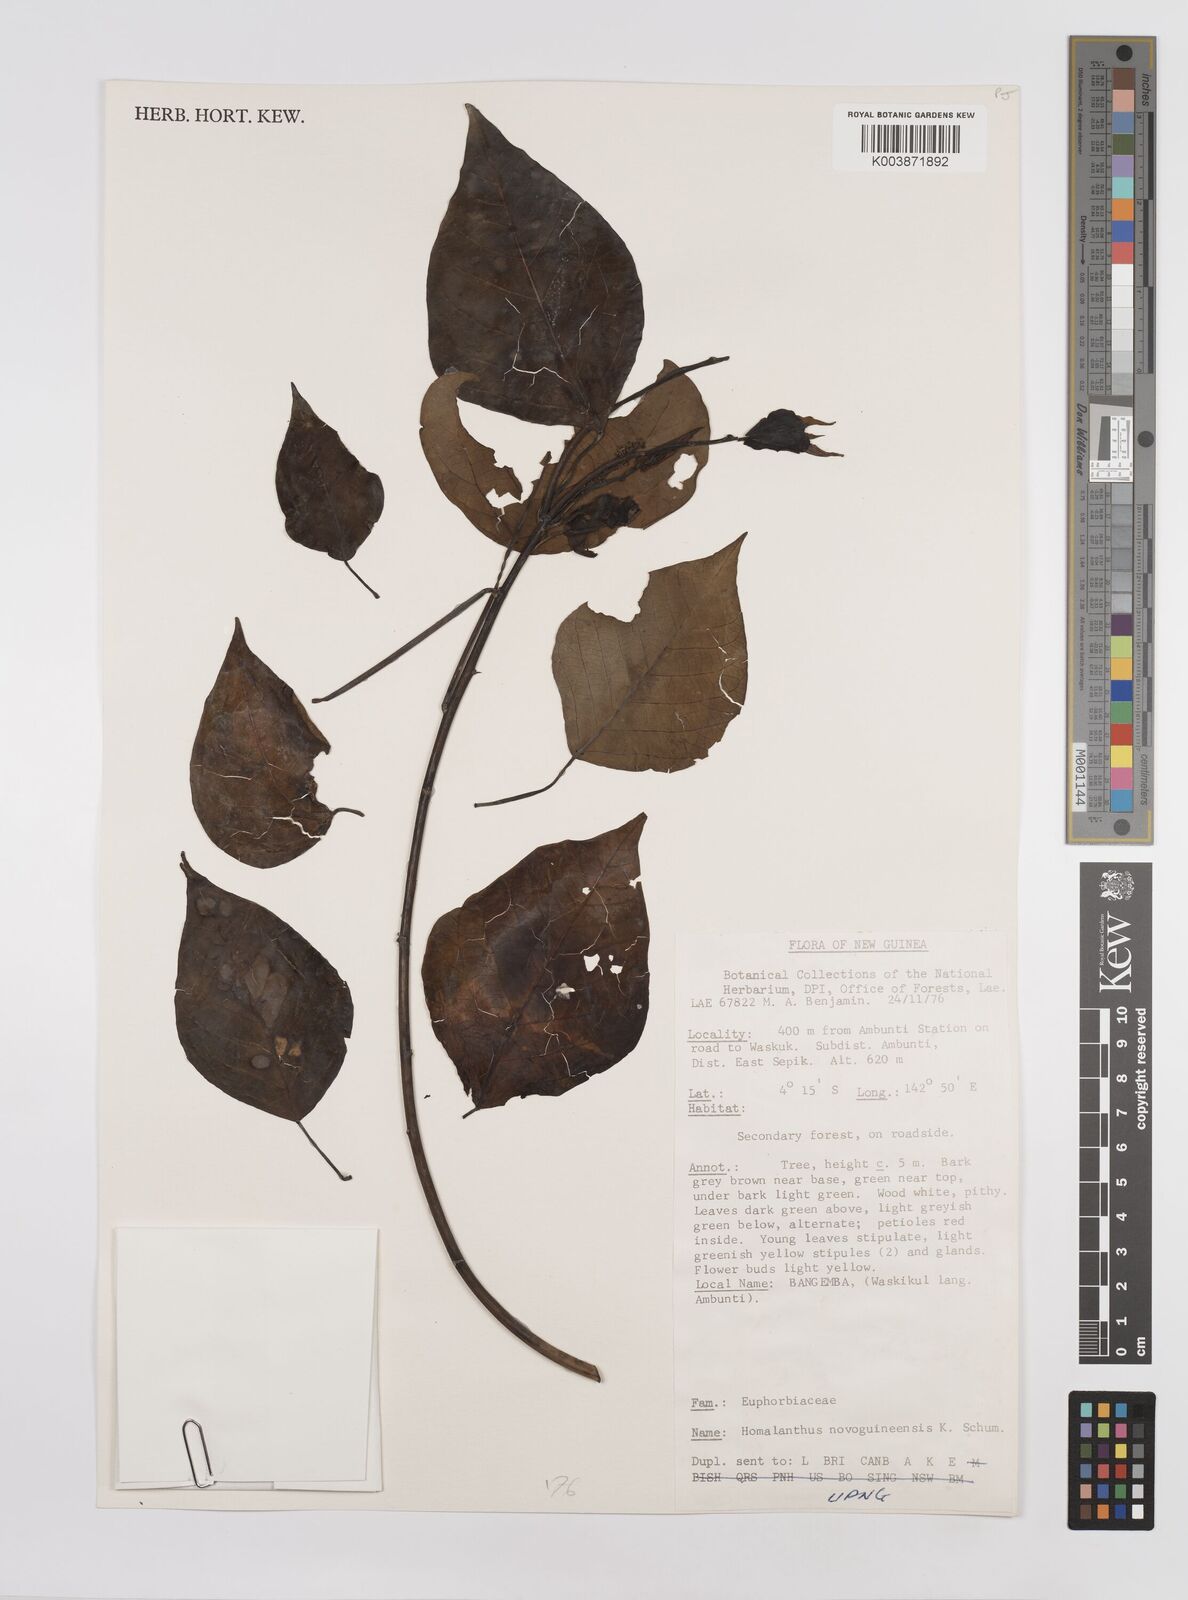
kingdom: Plantae
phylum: Tracheophyta
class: Magnoliopsida
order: Malpighiales
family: Euphorbiaceae
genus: Homalanthus
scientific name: Homalanthus novoguineensis
